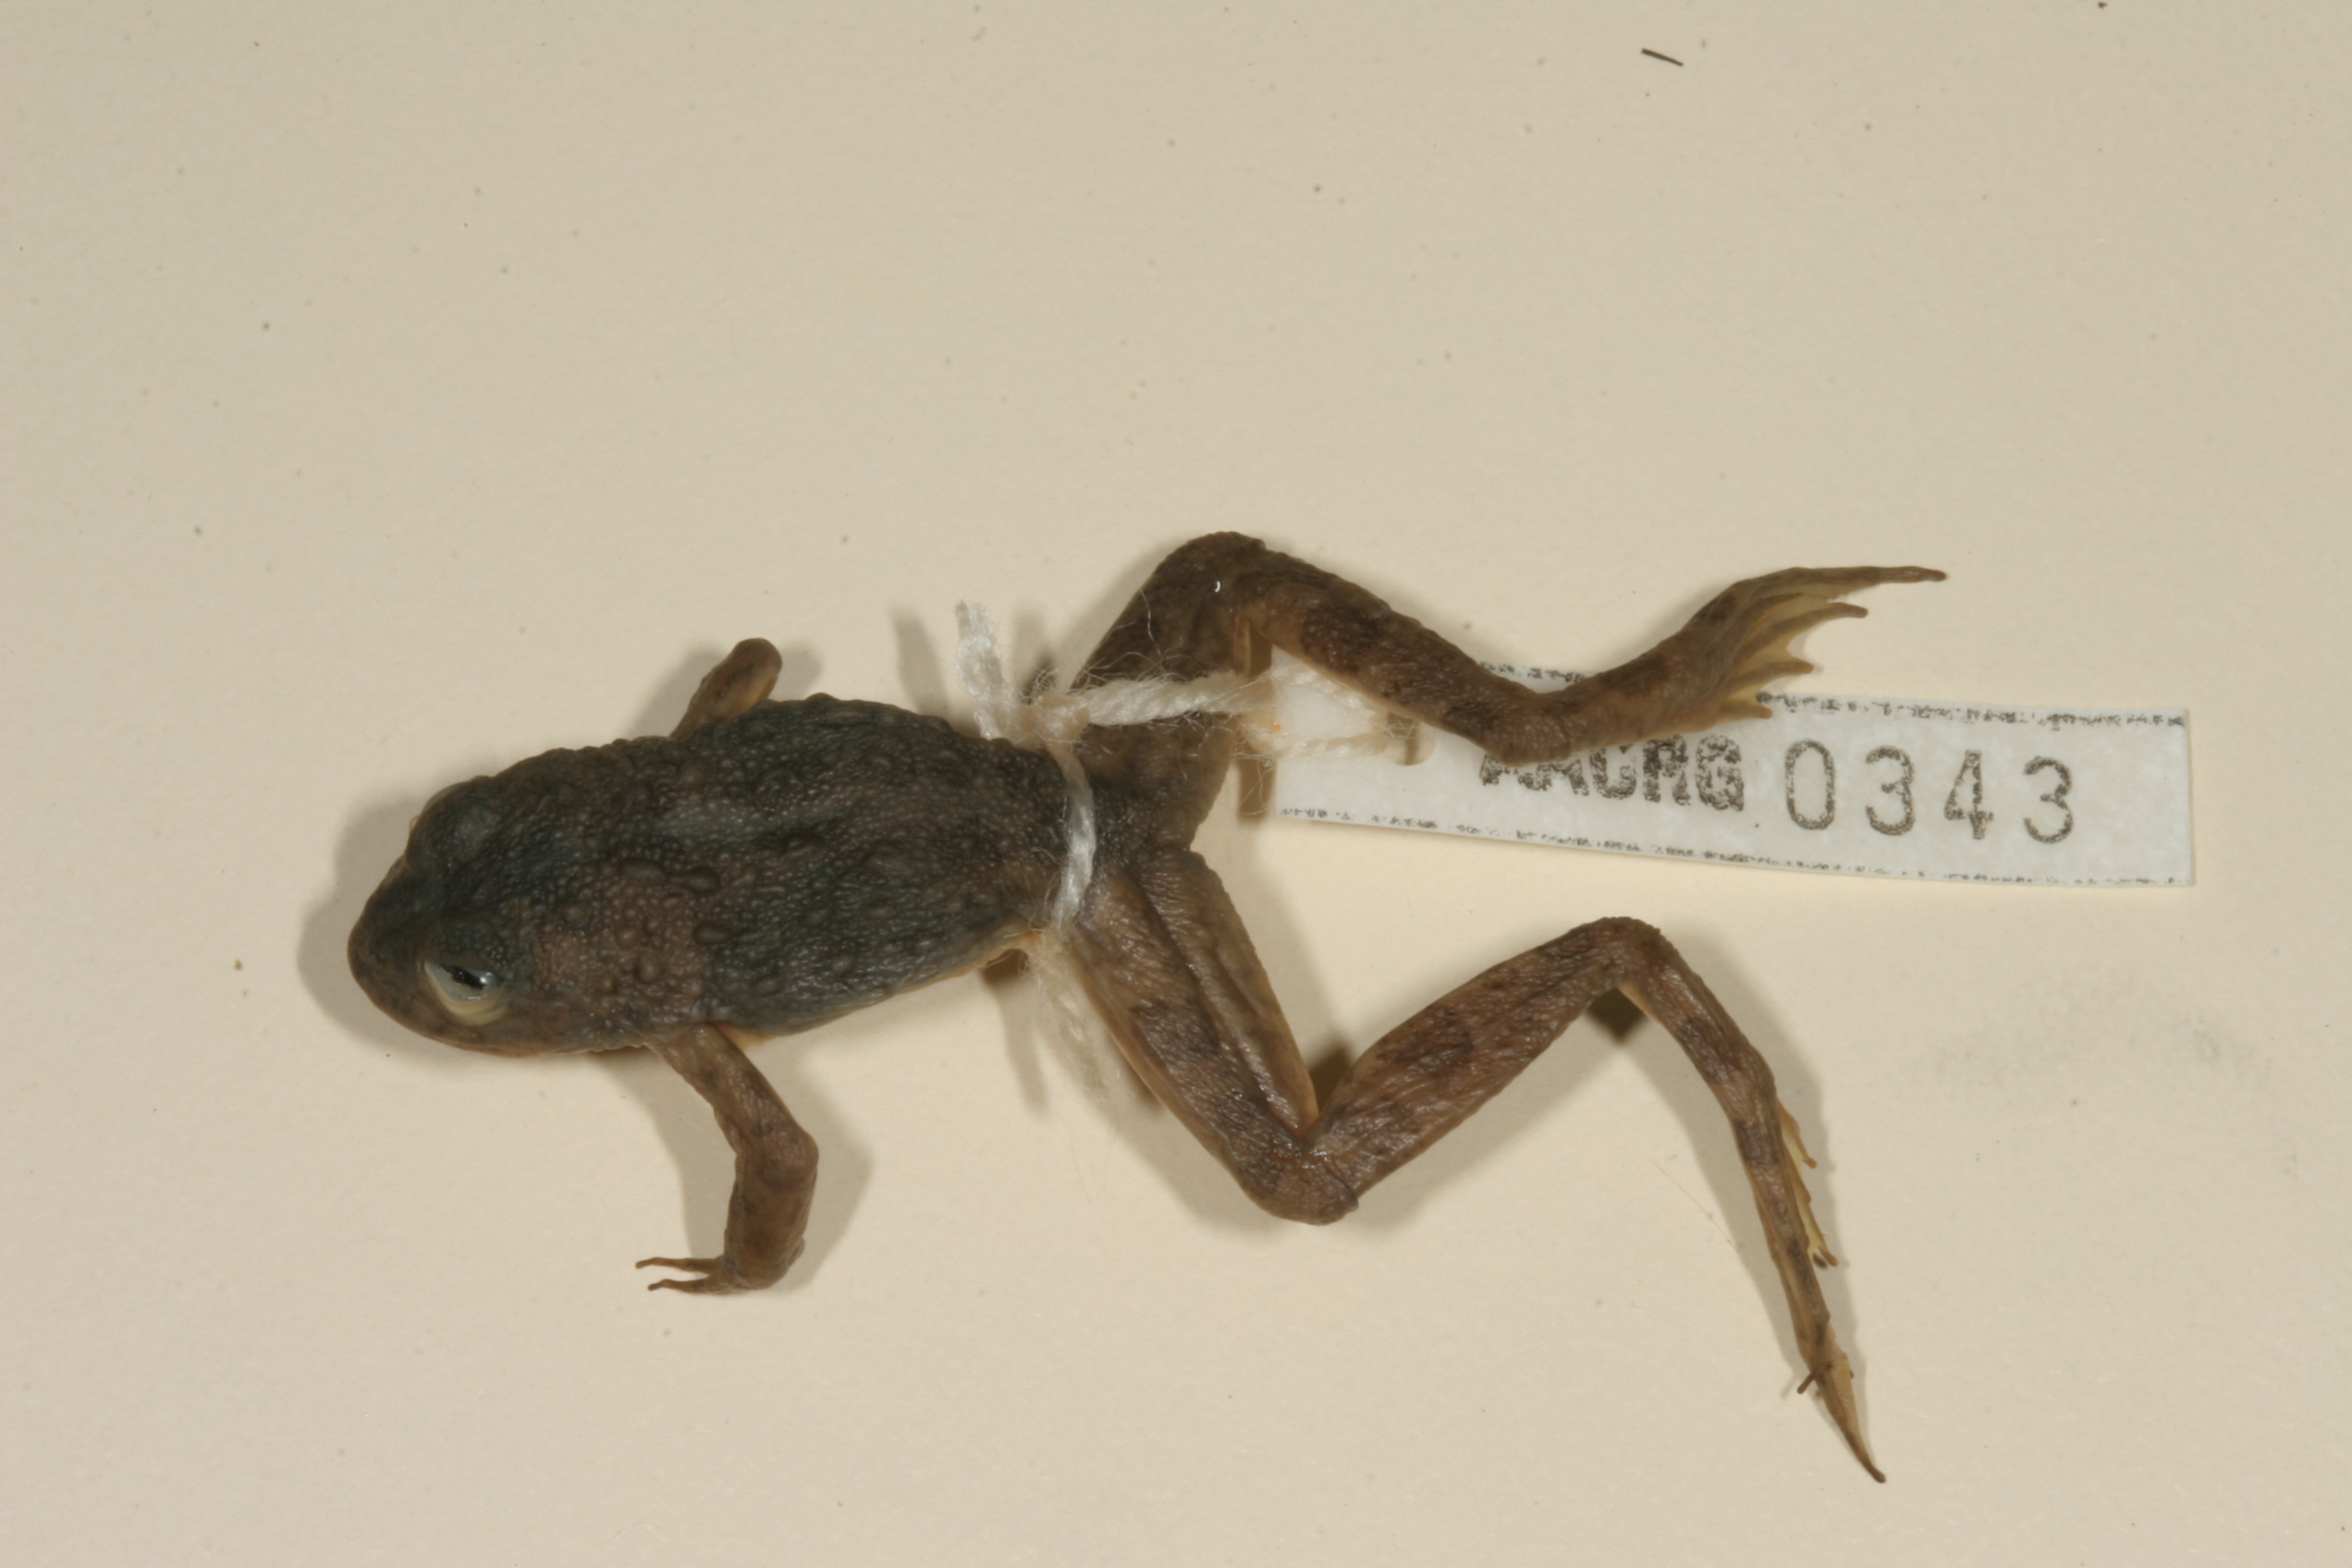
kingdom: Animalia
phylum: Chordata
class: Amphibia
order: Anura
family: Pyxicephalidae
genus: Amietia
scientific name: Amietia vertebralis
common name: Drakensberg stream frog
